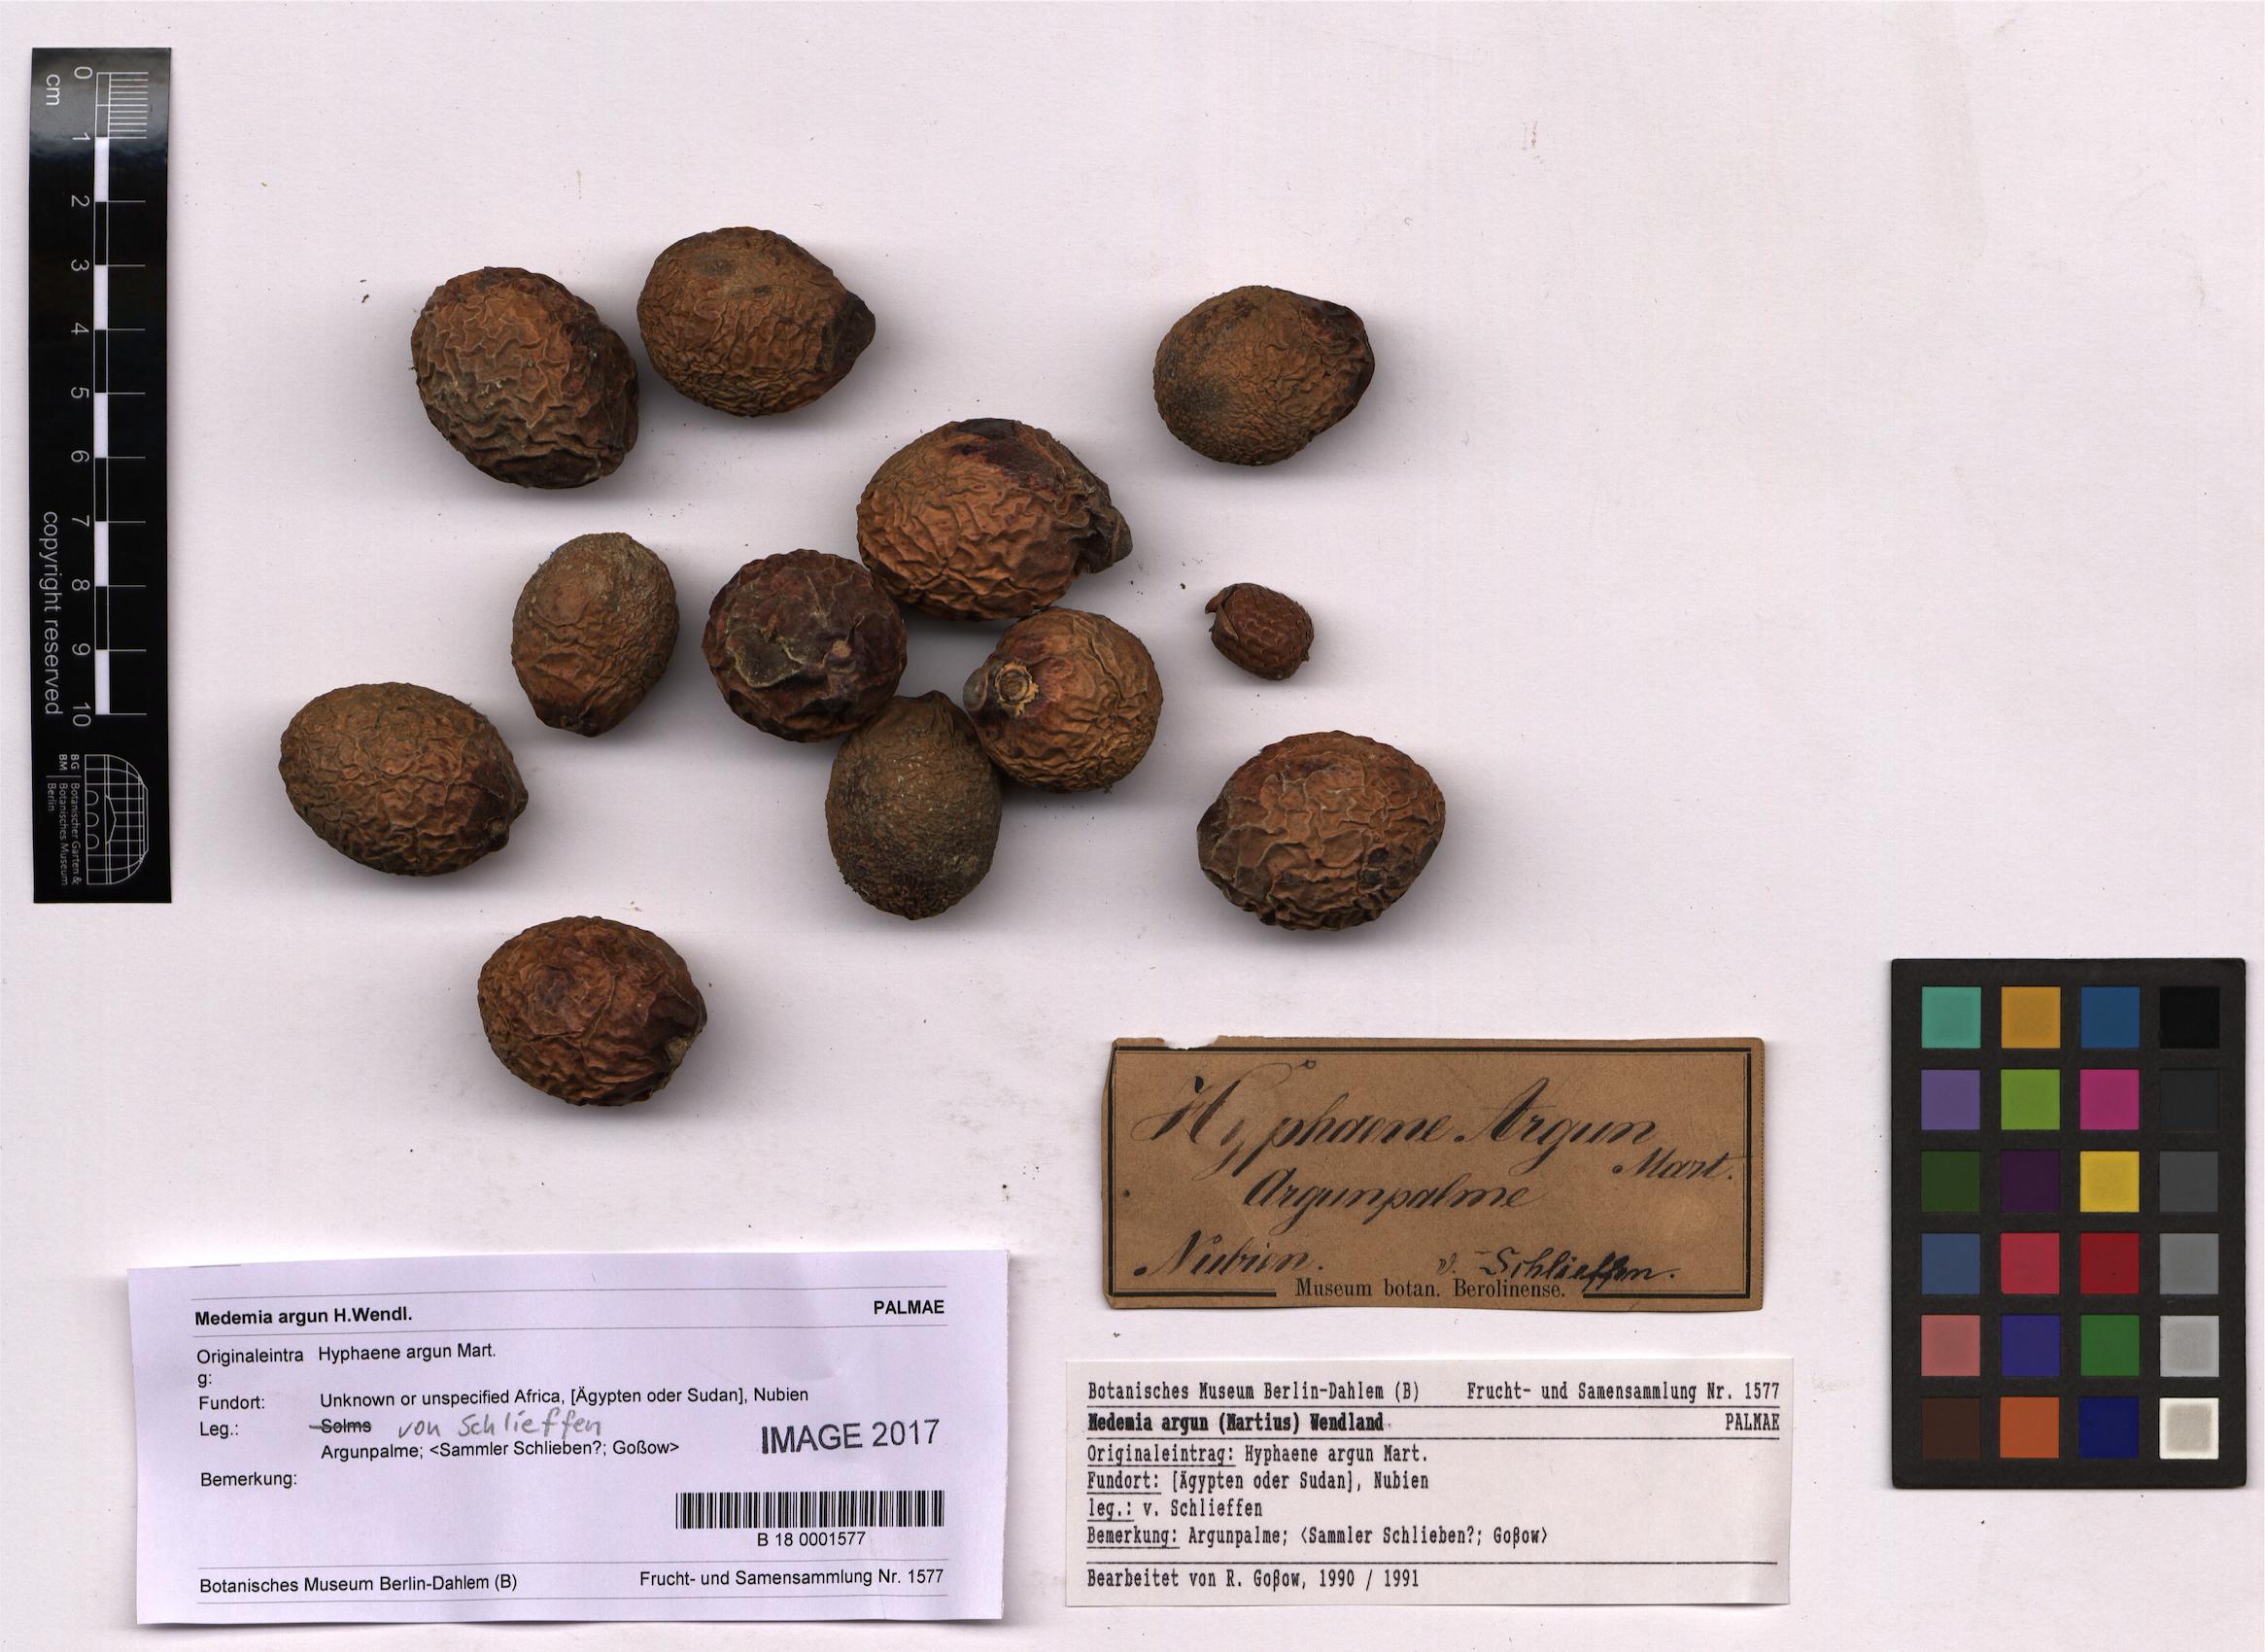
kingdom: Plantae
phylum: Tracheophyta
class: Liliopsida
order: Arecales
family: Arecaceae
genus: Medemia
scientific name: Medemia argun
